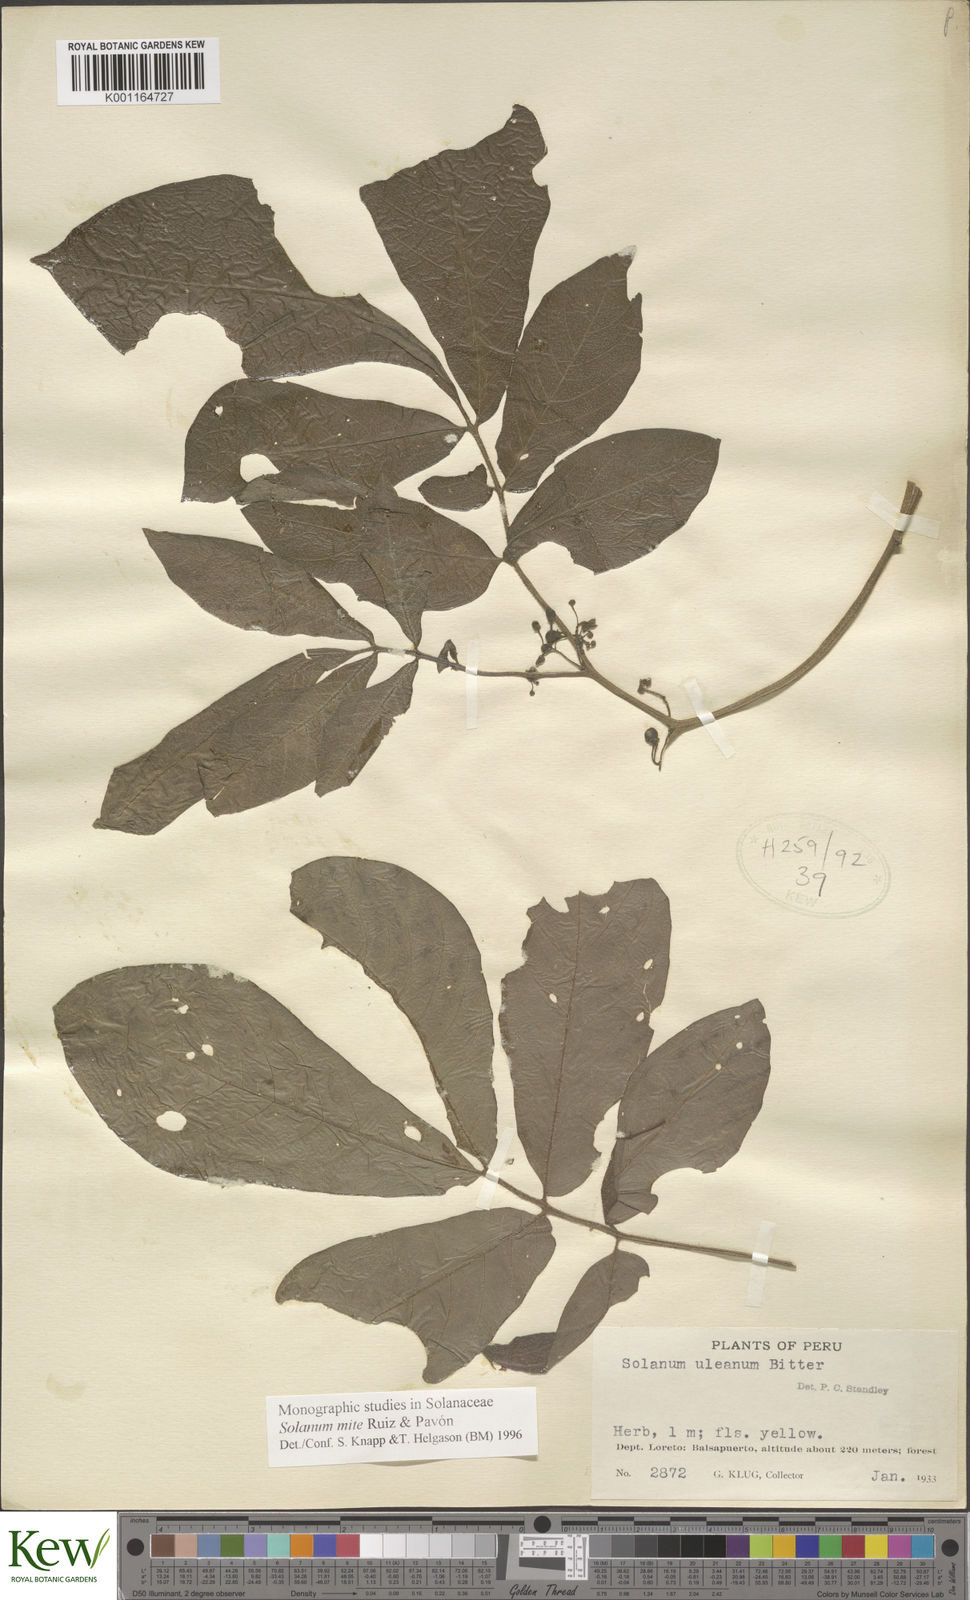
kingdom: Plantae
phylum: Tracheophyta
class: Magnoliopsida
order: Solanales
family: Solanaceae
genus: Solanum
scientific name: Solanum mite
